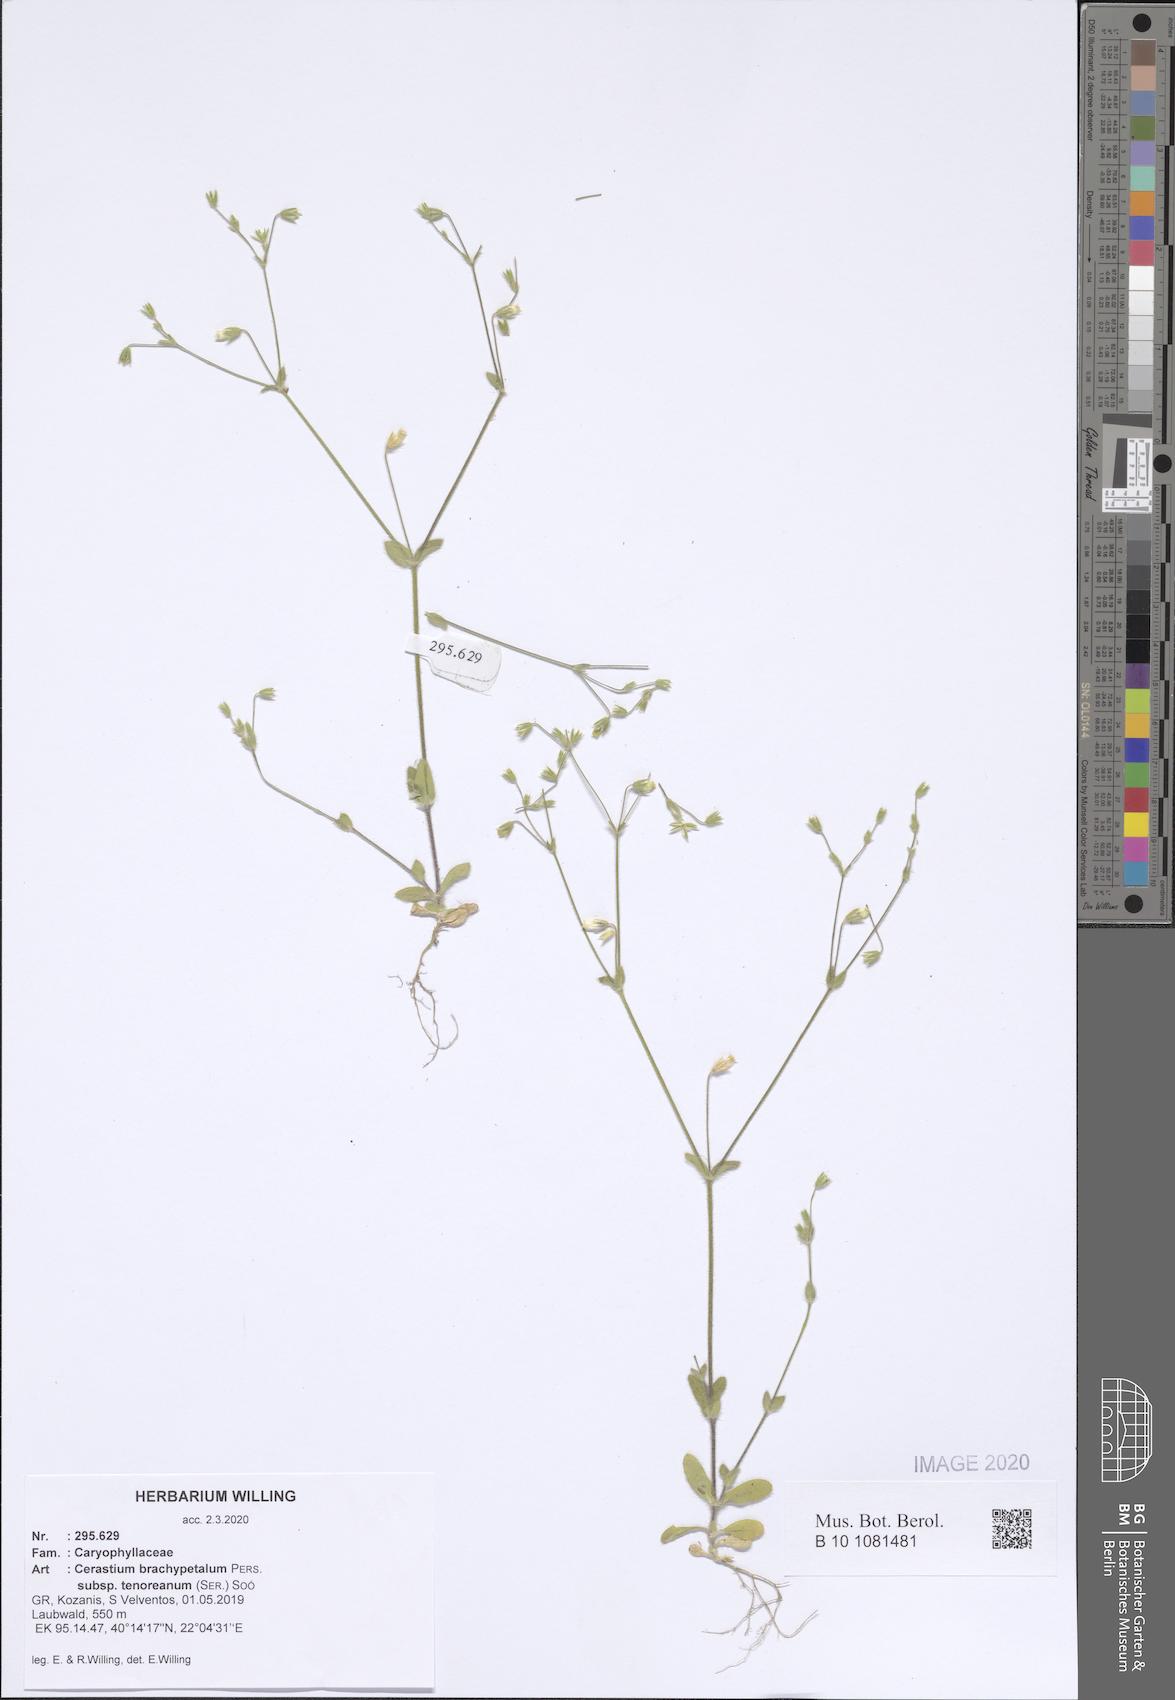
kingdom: Plantae
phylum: Tracheophyta
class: Magnoliopsida
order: Caryophyllales
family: Caryophyllaceae
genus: Cerastium
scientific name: Cerastium tenoreanum
